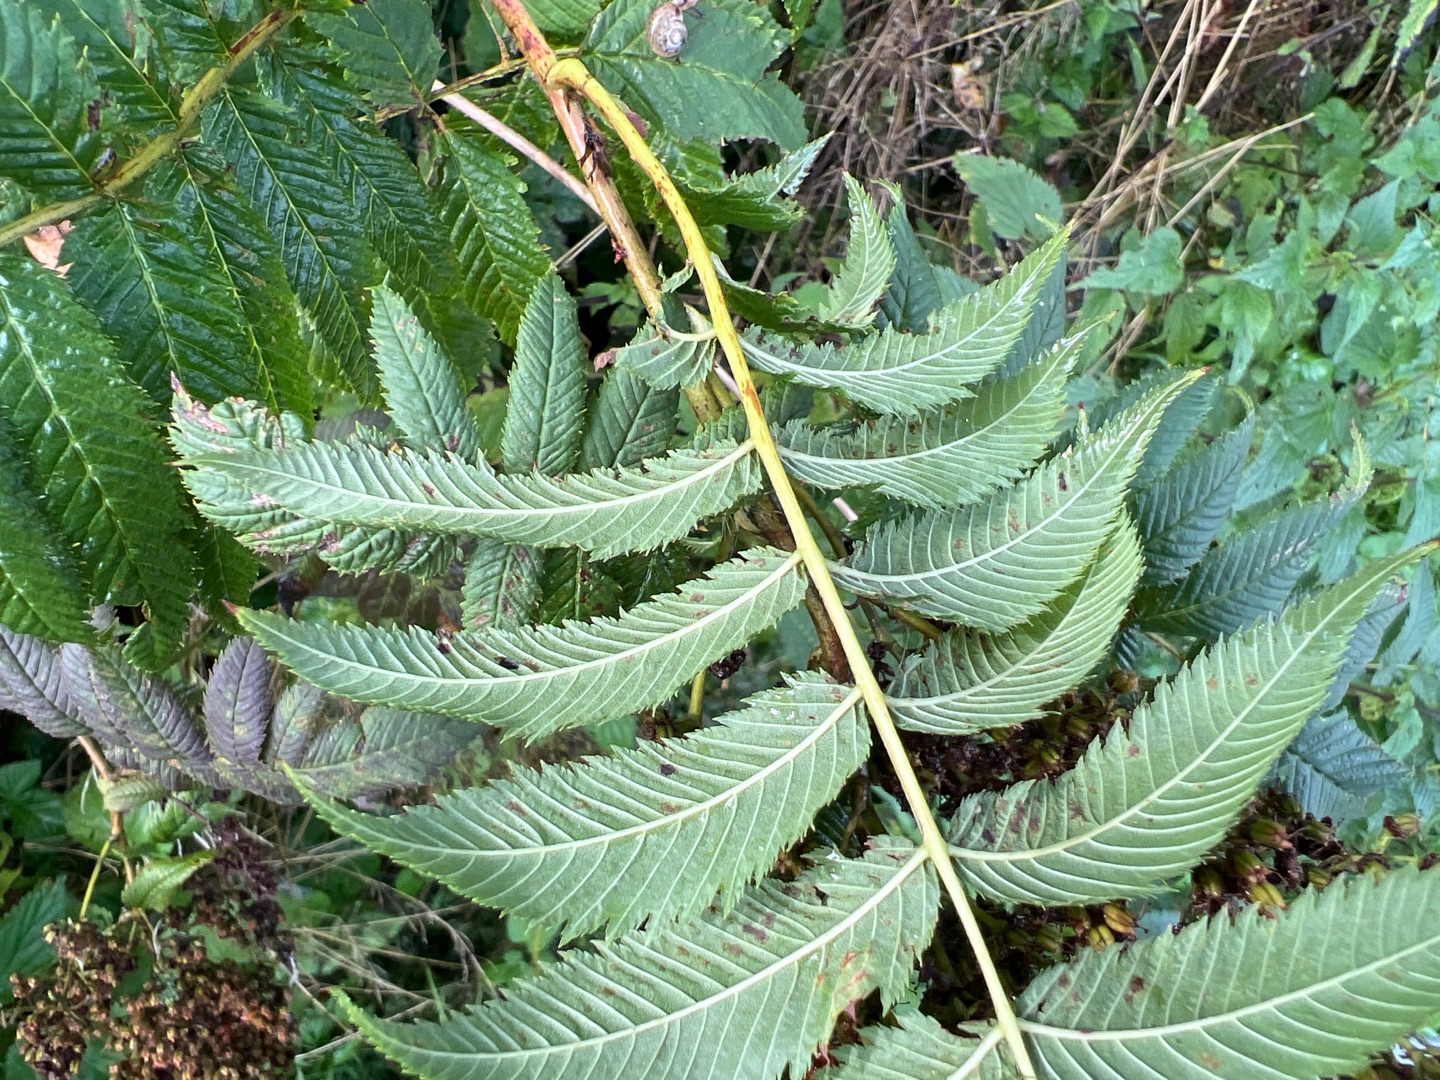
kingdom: Plantae
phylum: Tracheophyta
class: Magnoliopsida
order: Rosales
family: Rosaceae
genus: Sorbaria
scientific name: Sorbaria tomentosa
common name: Kashmir-tusindtop
